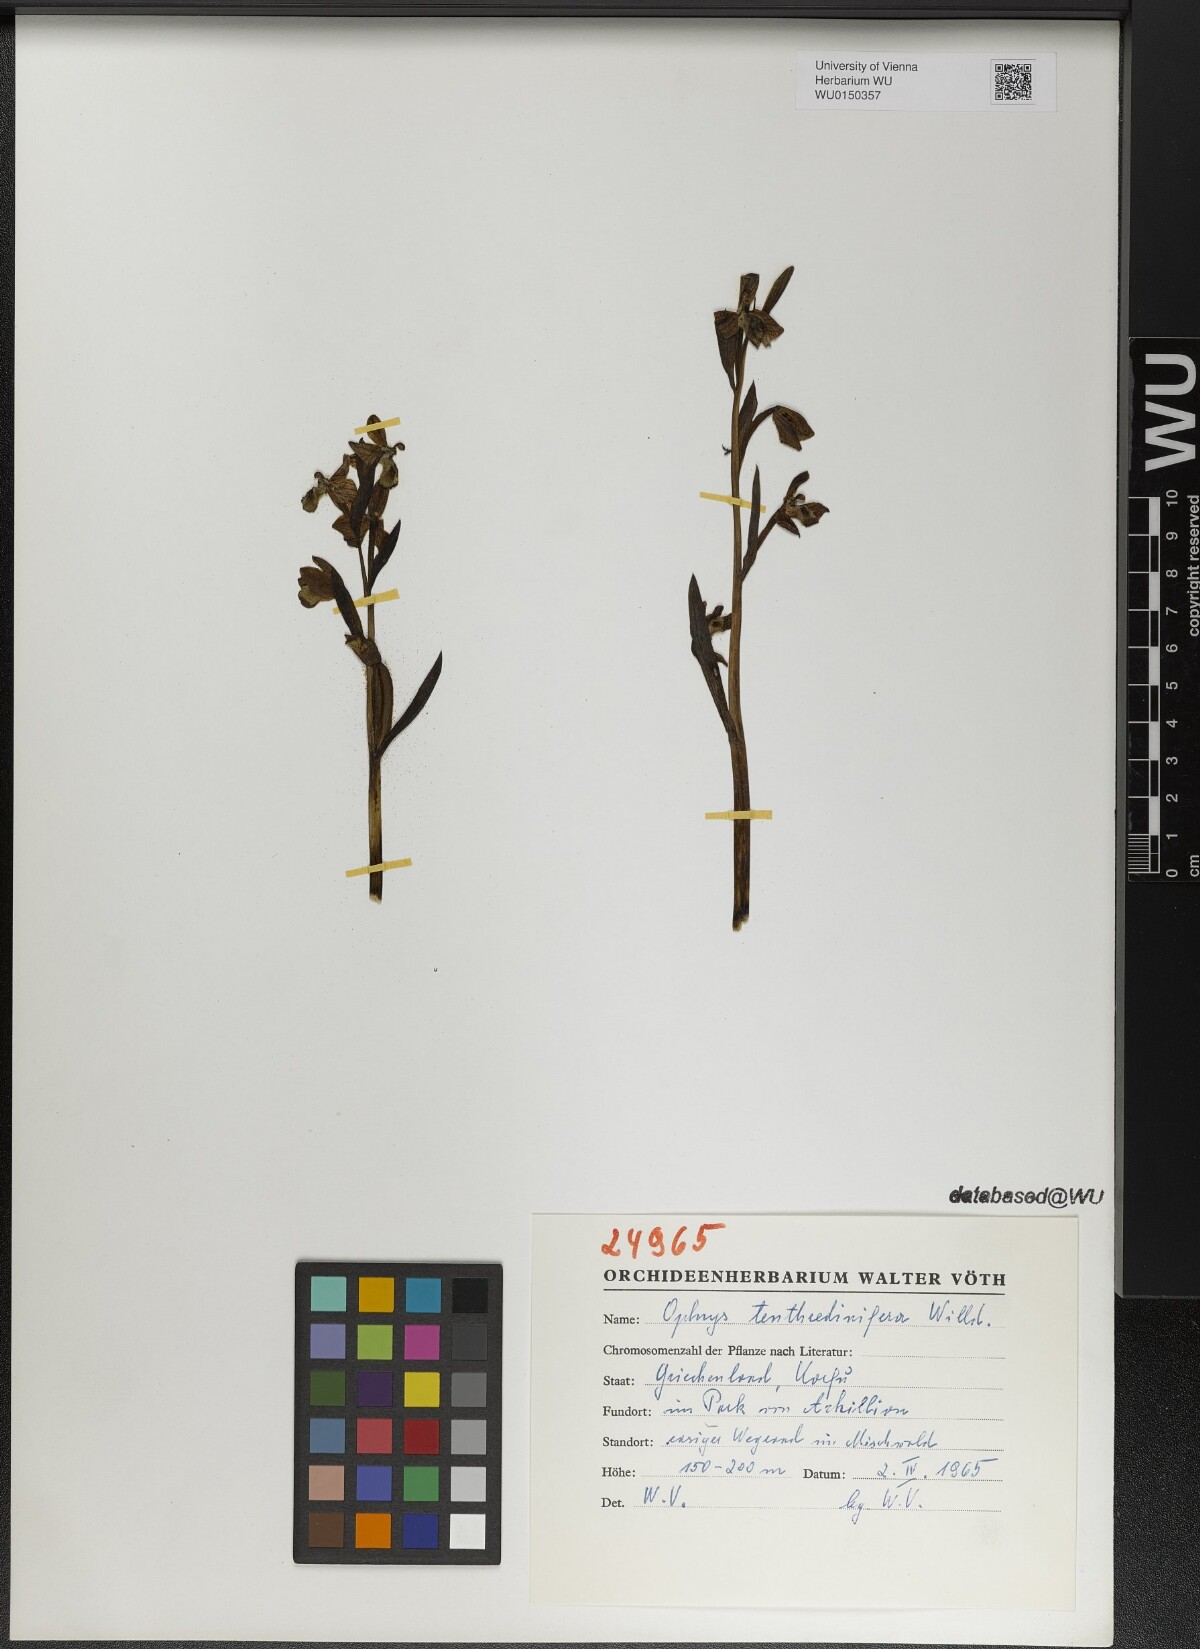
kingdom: Plantae
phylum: Tracheophyta
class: Liliopsida
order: Asparagales
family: Orchidaceae
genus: Ophrys
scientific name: Ophrys tenthredinifera
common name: Sawfly orchid
